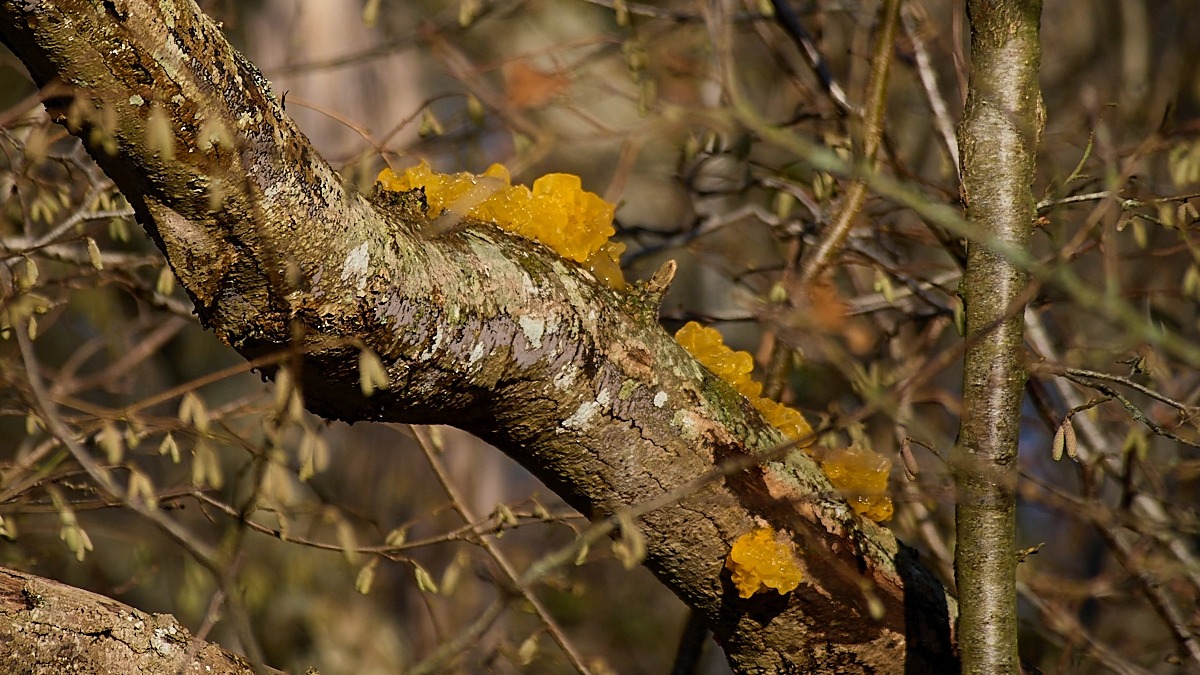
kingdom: Fungi
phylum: Basidiomycota
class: Tremellomycetes
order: Tremellales
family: Tremellaceae
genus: Tremella
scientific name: Tremella mesenterica
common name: Gul bævresvamp
